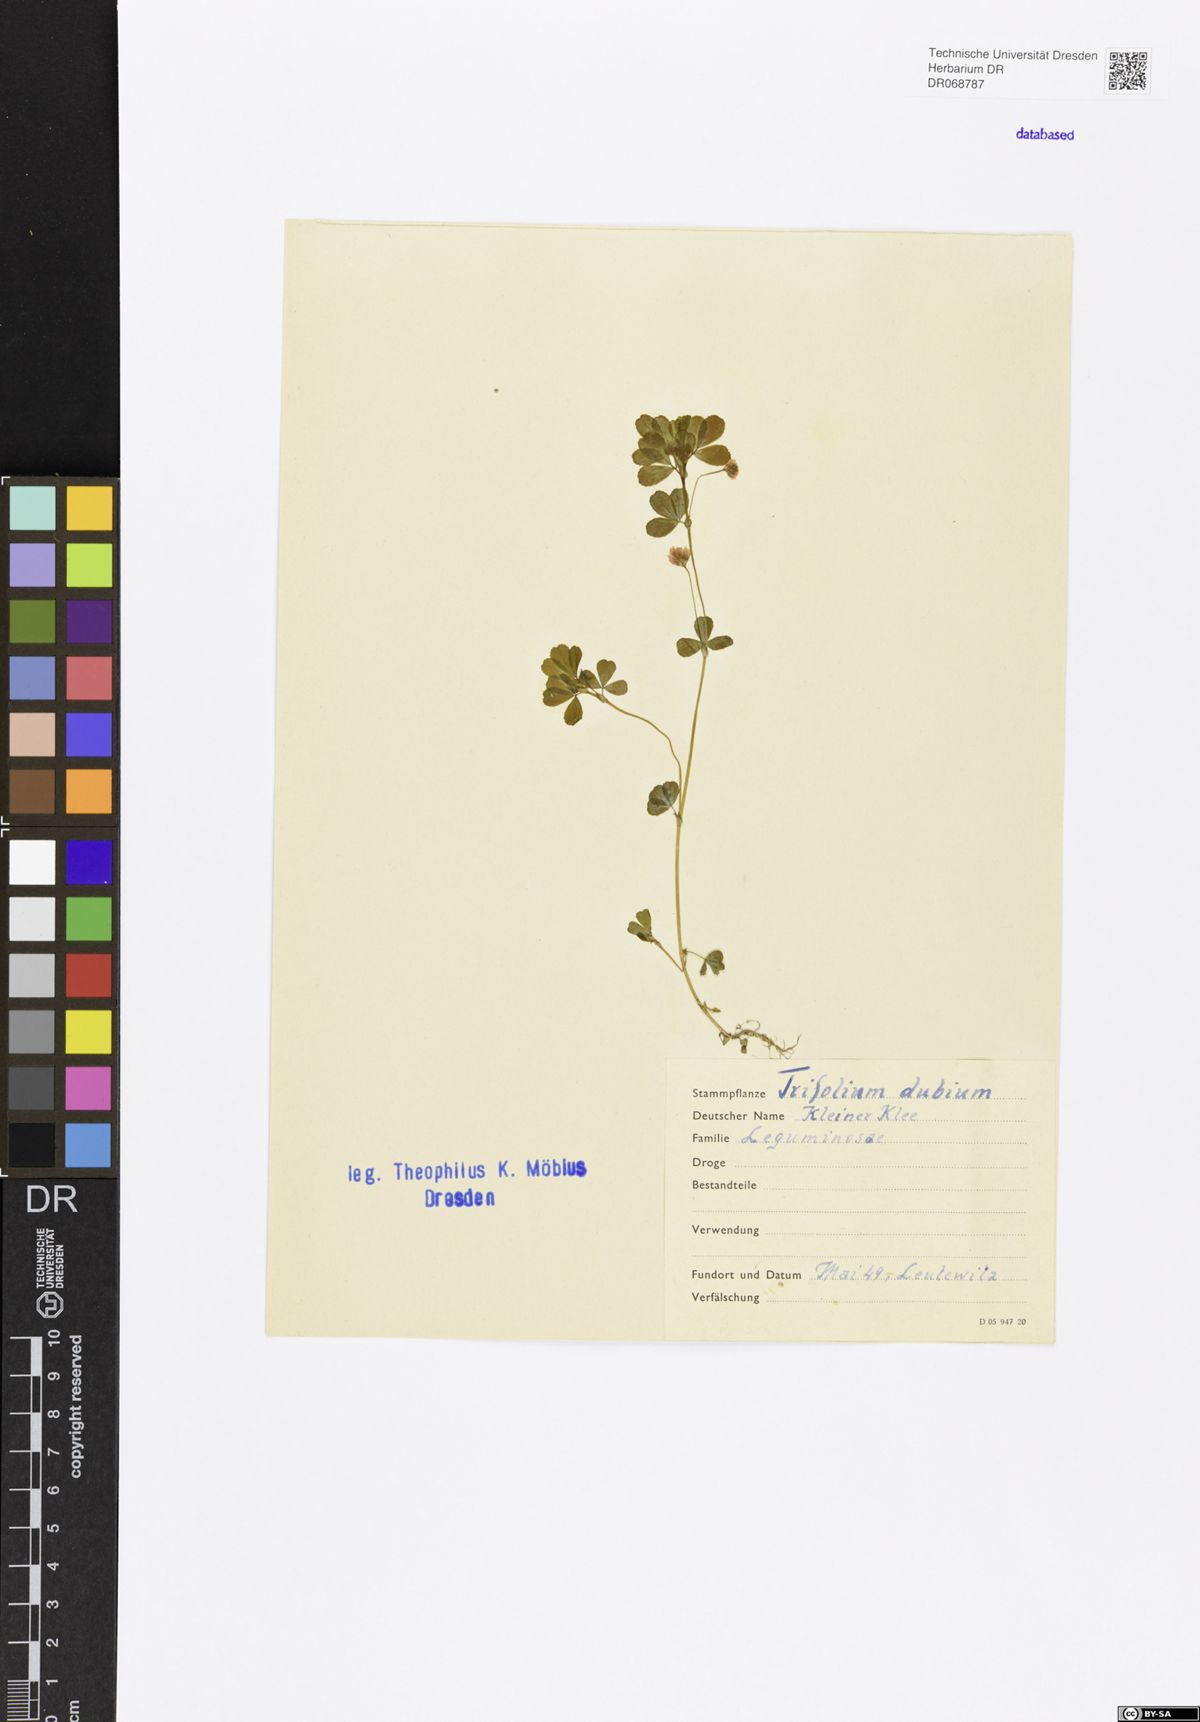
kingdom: Plantae
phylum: Tracheophyta
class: Magnoliopsida
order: Fabales
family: Fabaceae
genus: Trifolium
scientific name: Trifolium dubium
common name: Suckling clover
